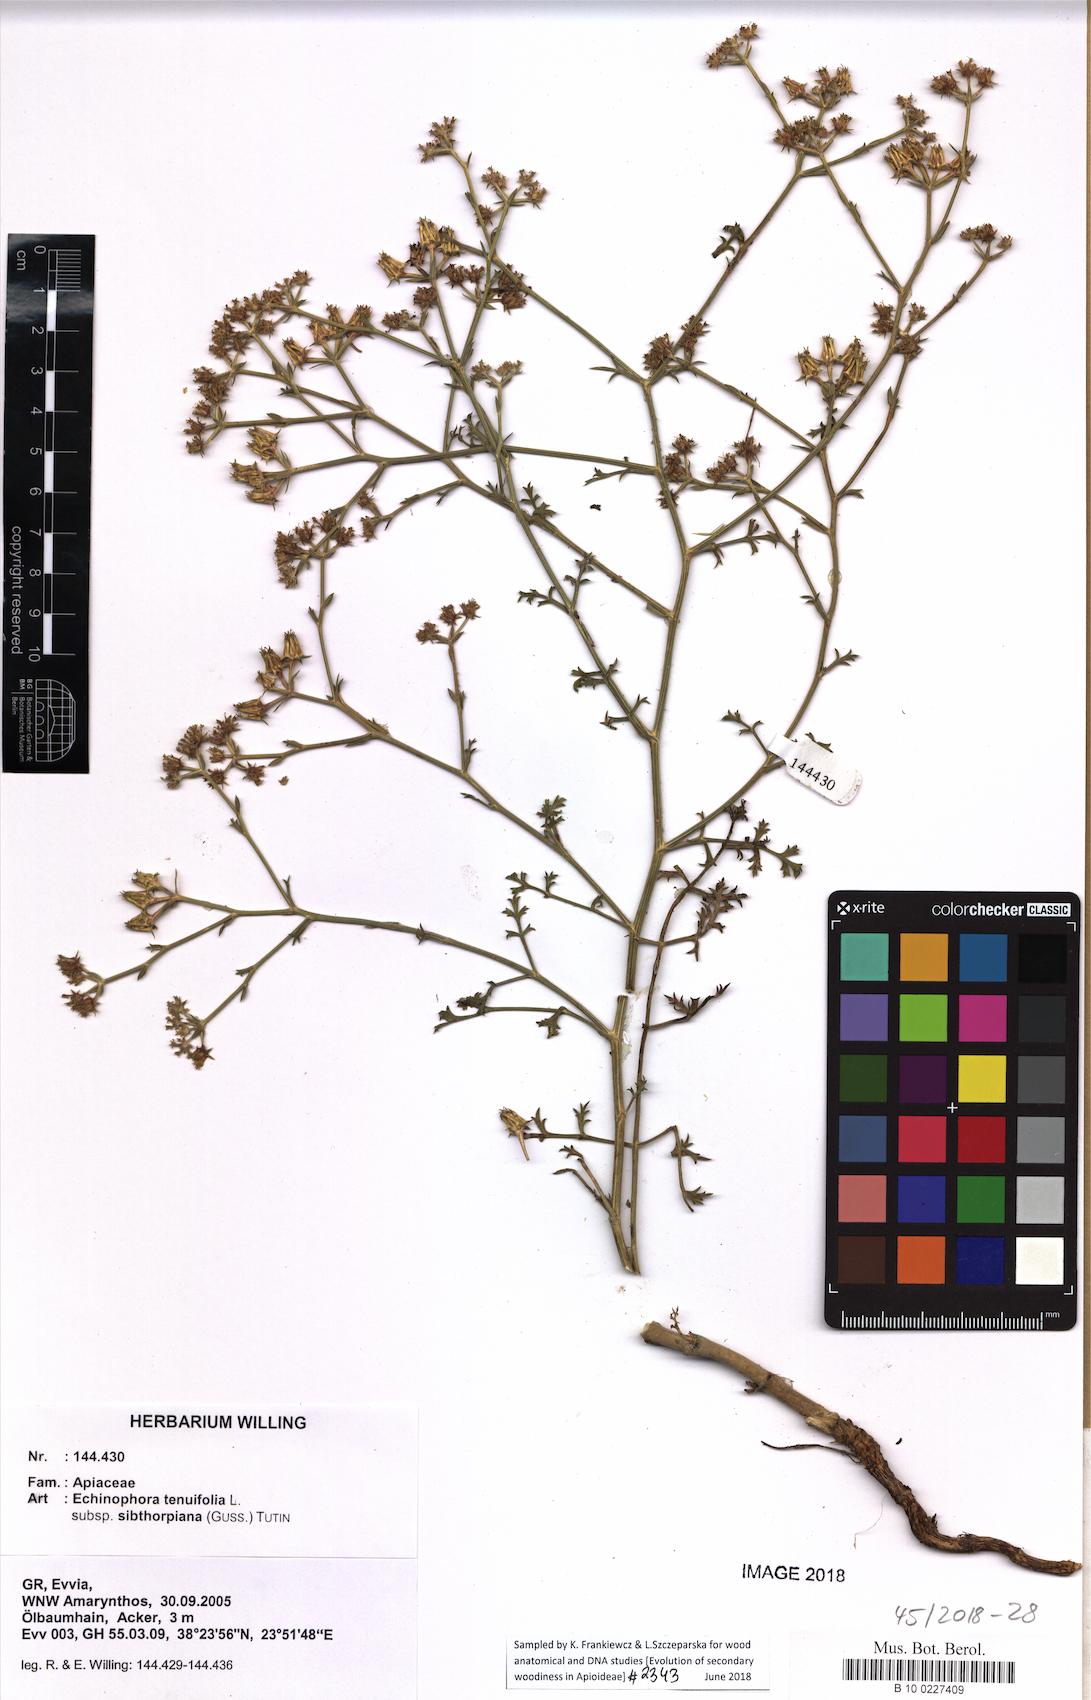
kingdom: Plantae
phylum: Tracheophyta
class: Magnoliopsida
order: Apiales
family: Apiaceae
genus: Echinophora
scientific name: Echinophora sibthorpiana
